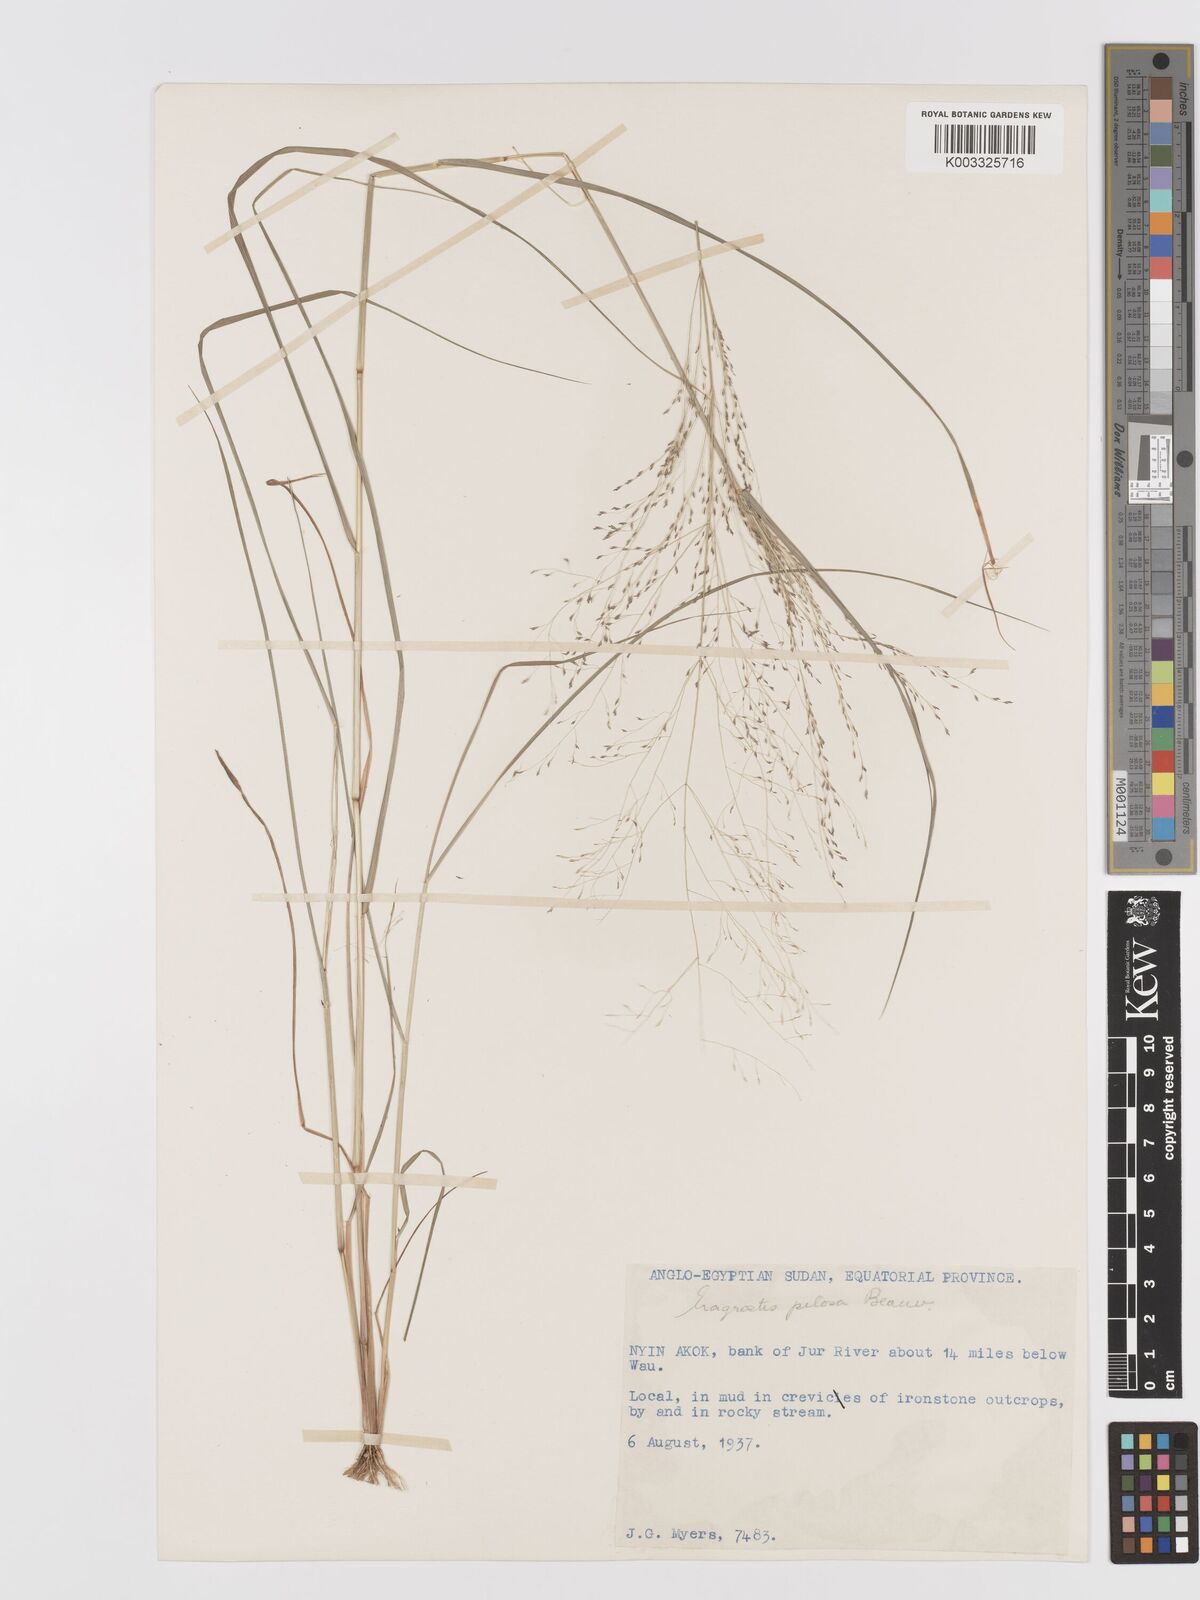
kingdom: Plantae
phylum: Tracheophyta
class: Liliopsida
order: Poales
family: Poaceae
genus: Eragrostis
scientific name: Eragrostis pilosa
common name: Indian lovegrass
